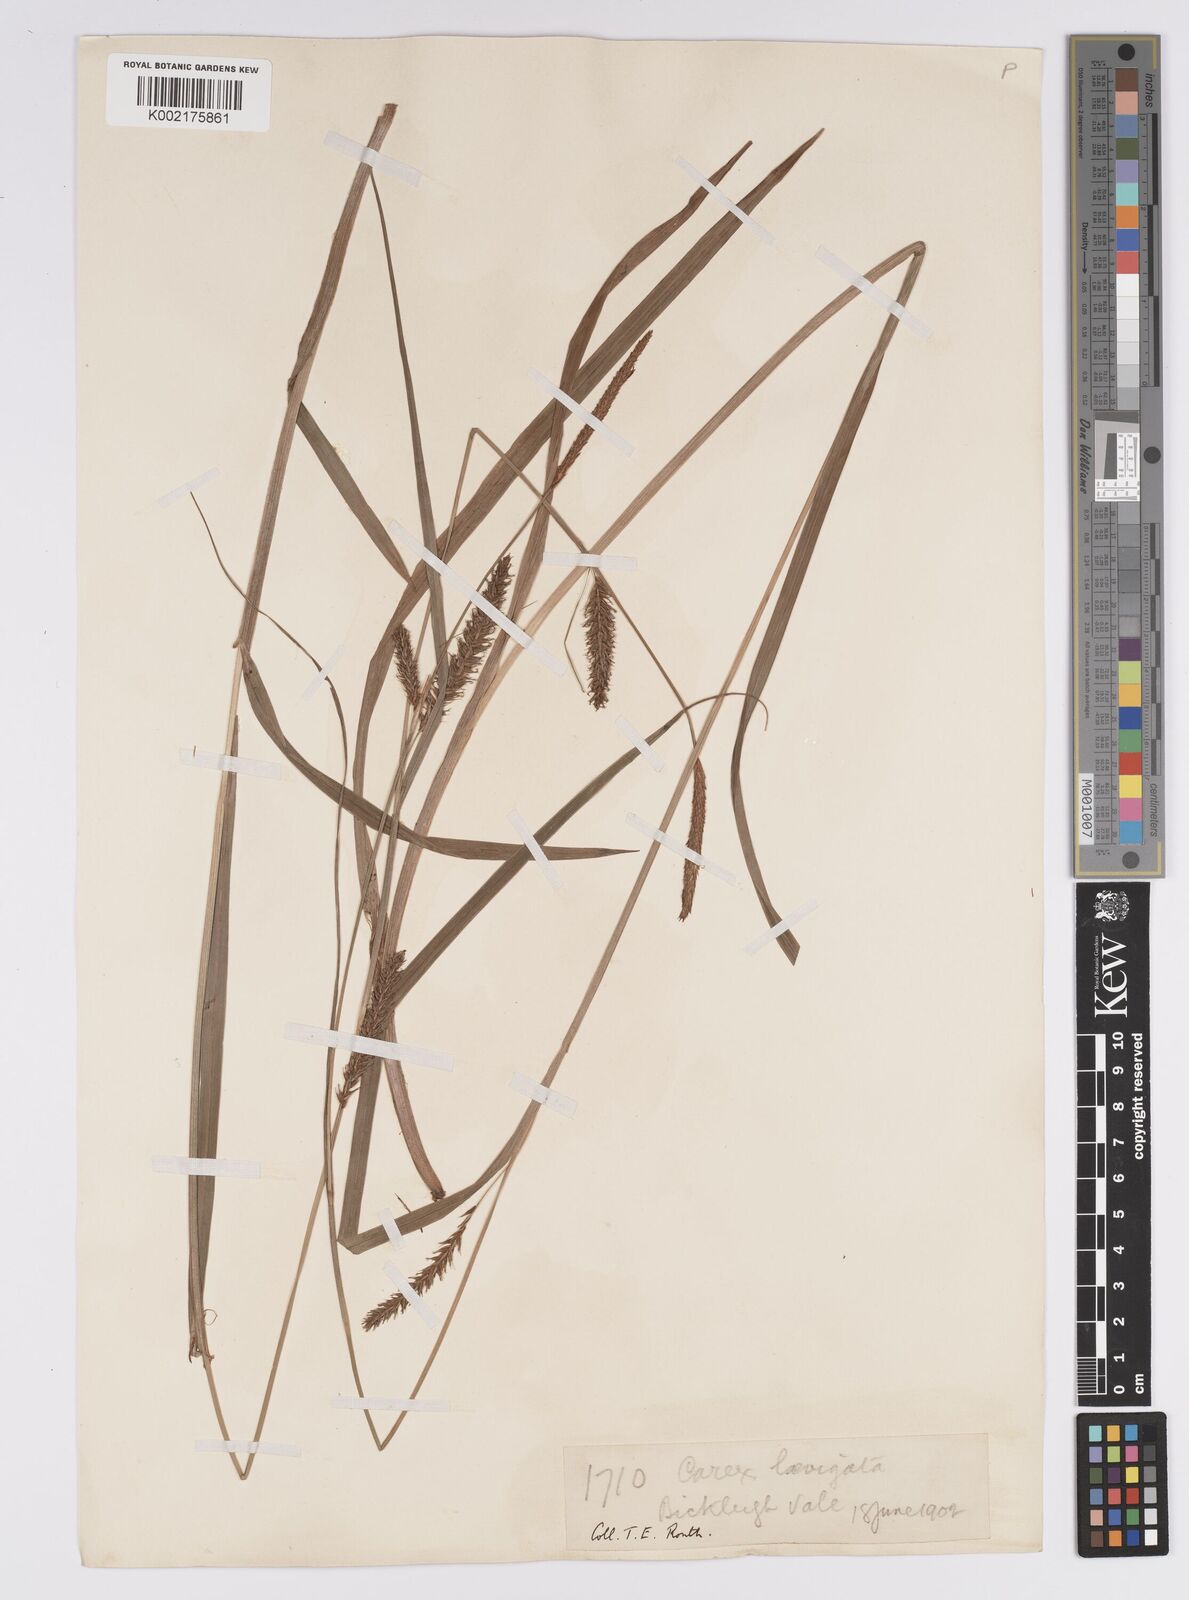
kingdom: Plantae
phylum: Tracheophyta
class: Liliopsida
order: Poales
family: Cyperaceae
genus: Carex
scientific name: Carex laevigata
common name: Smooth-stalked sedge
